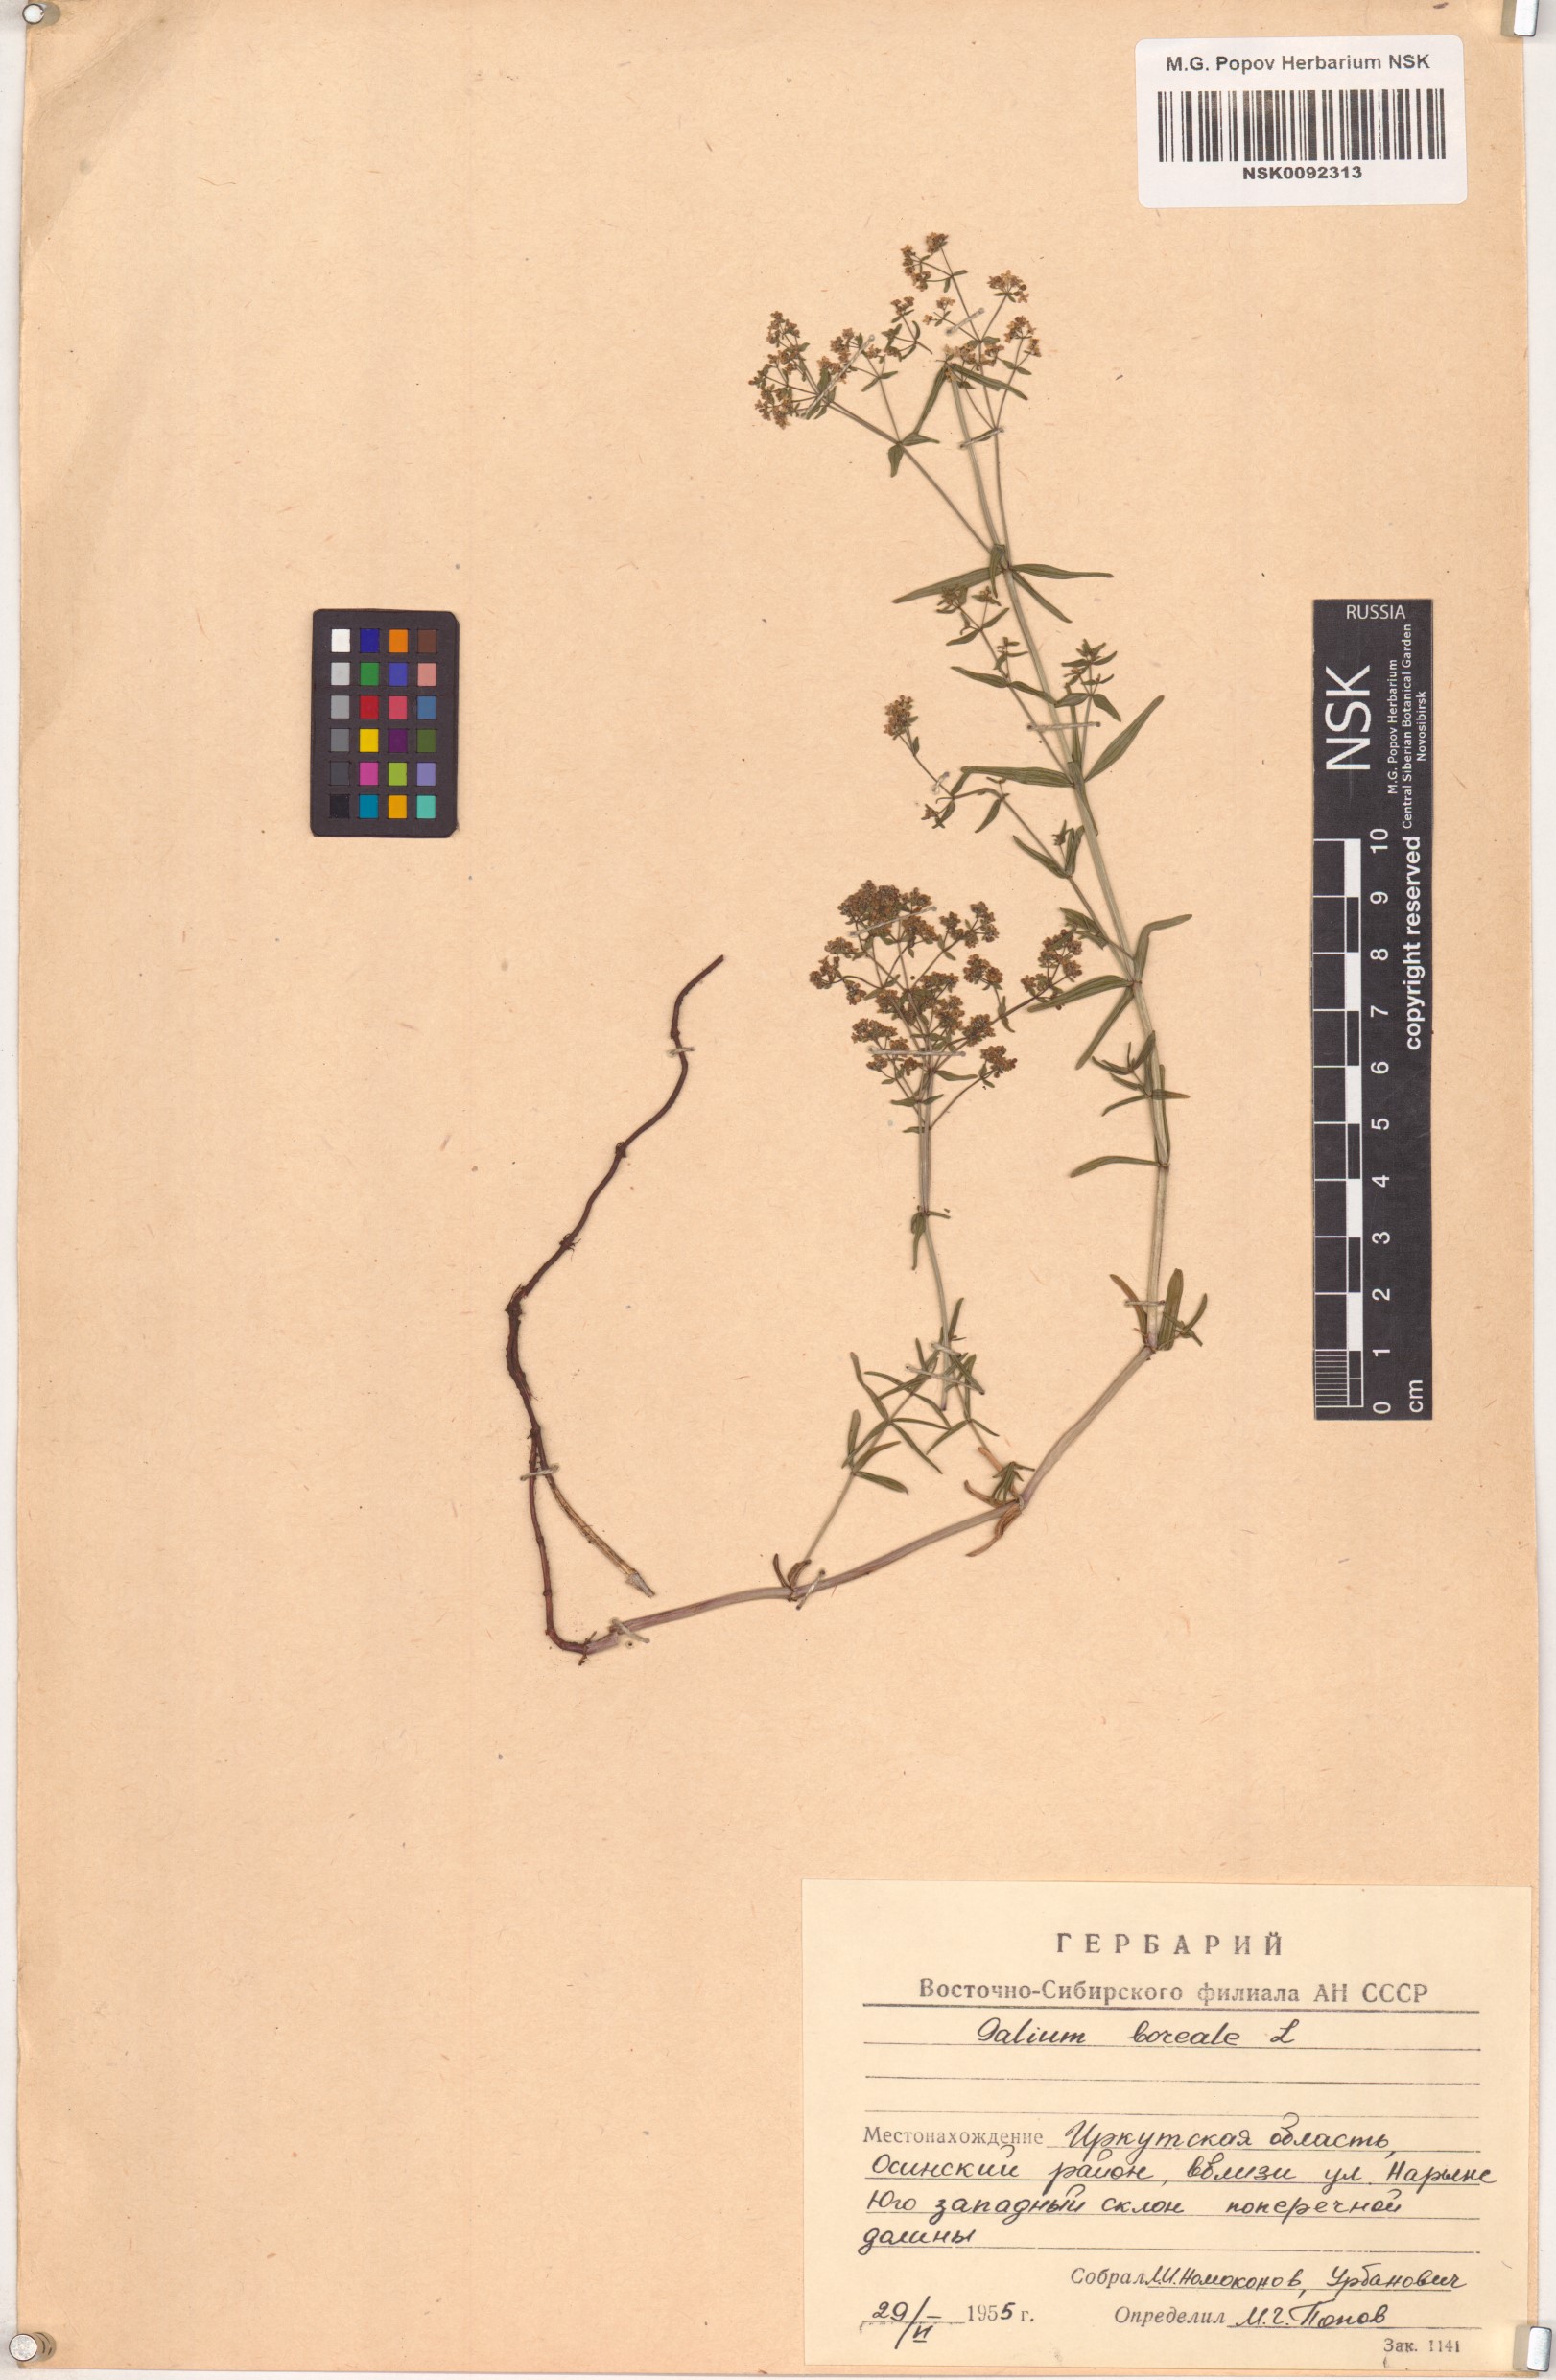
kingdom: Plantae
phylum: Tracheophyta
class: Magnoliopsida
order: Gentianales
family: Rubiaceae
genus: Galium
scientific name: Galium boreale
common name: Northern bedstraw
